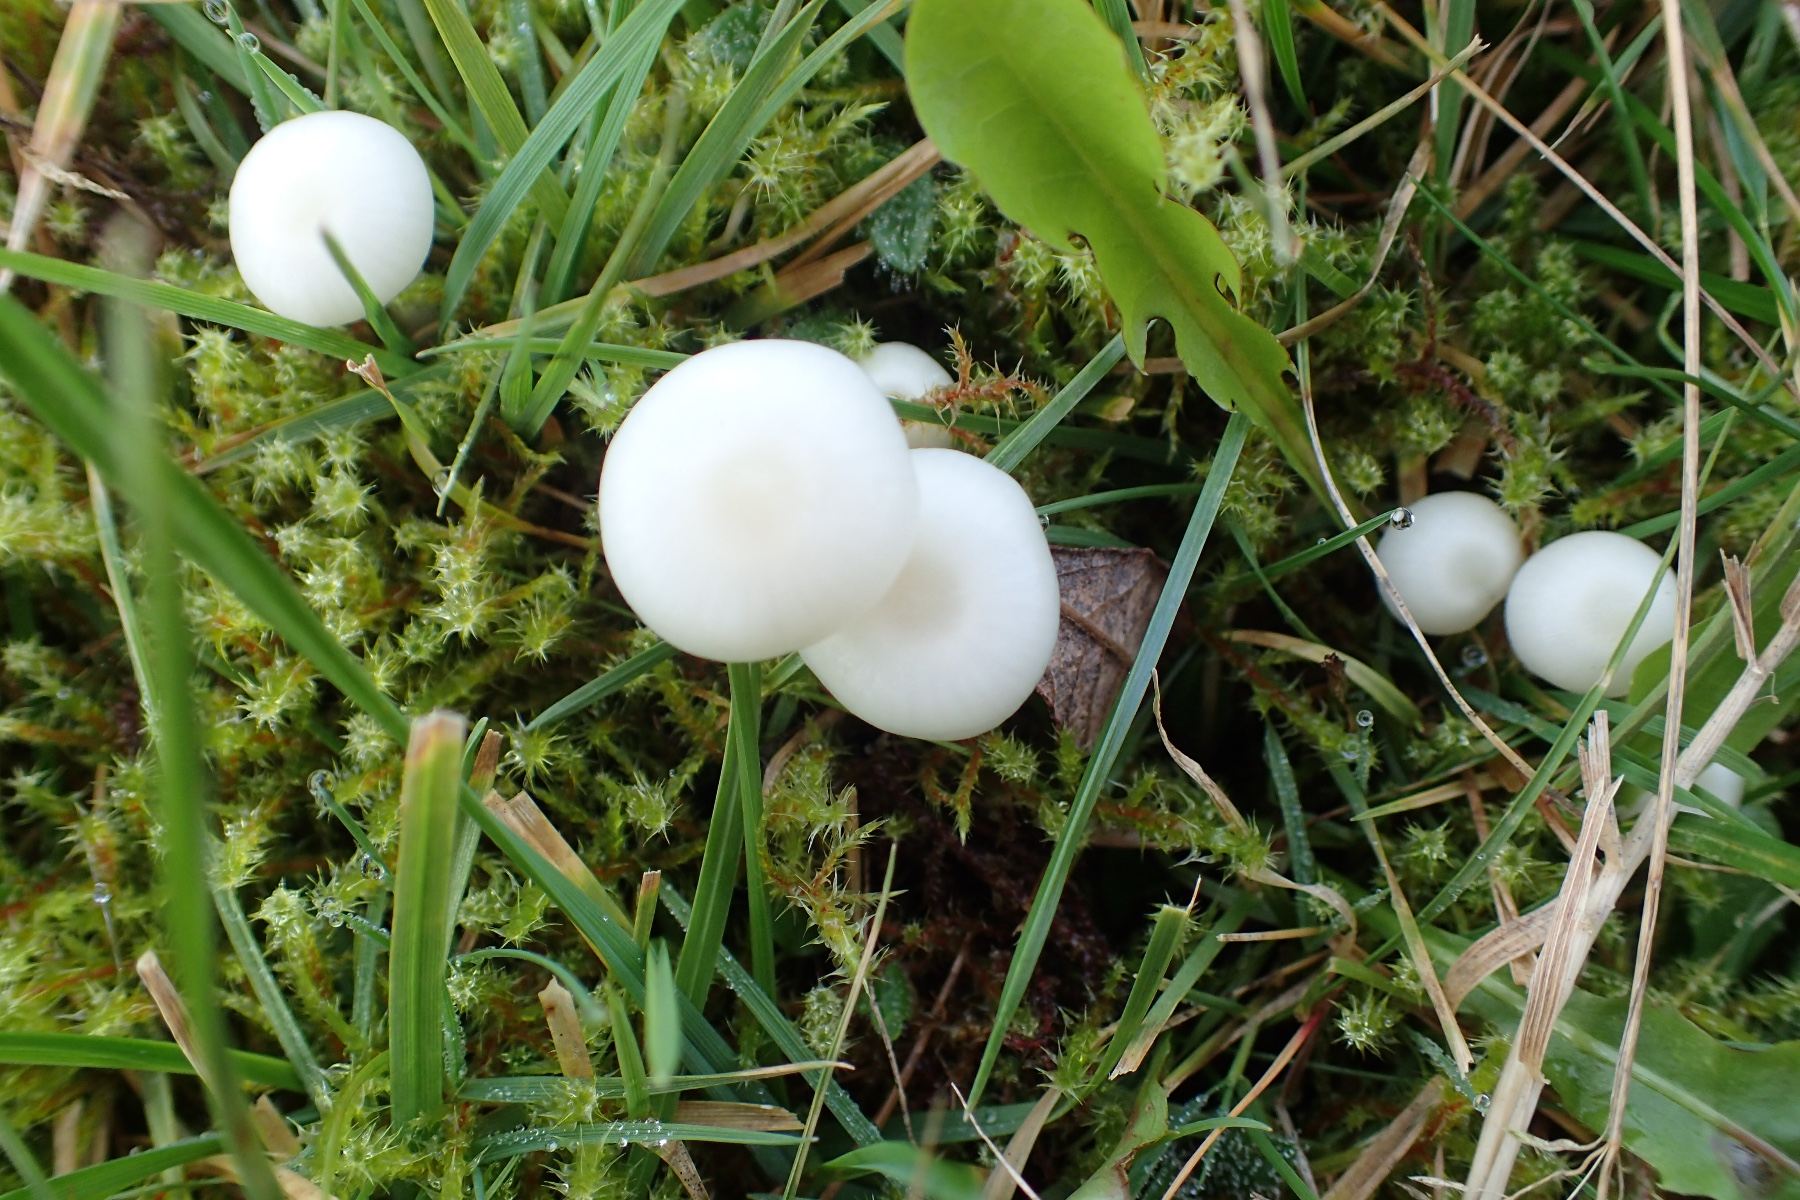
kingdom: Fungi
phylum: Basidiomycota
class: Agaricomycetes
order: Agaricales
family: Hygrophoraceae
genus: Cuphophyllus
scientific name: Cuphophyllus virgineus
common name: snehvid vokshat
